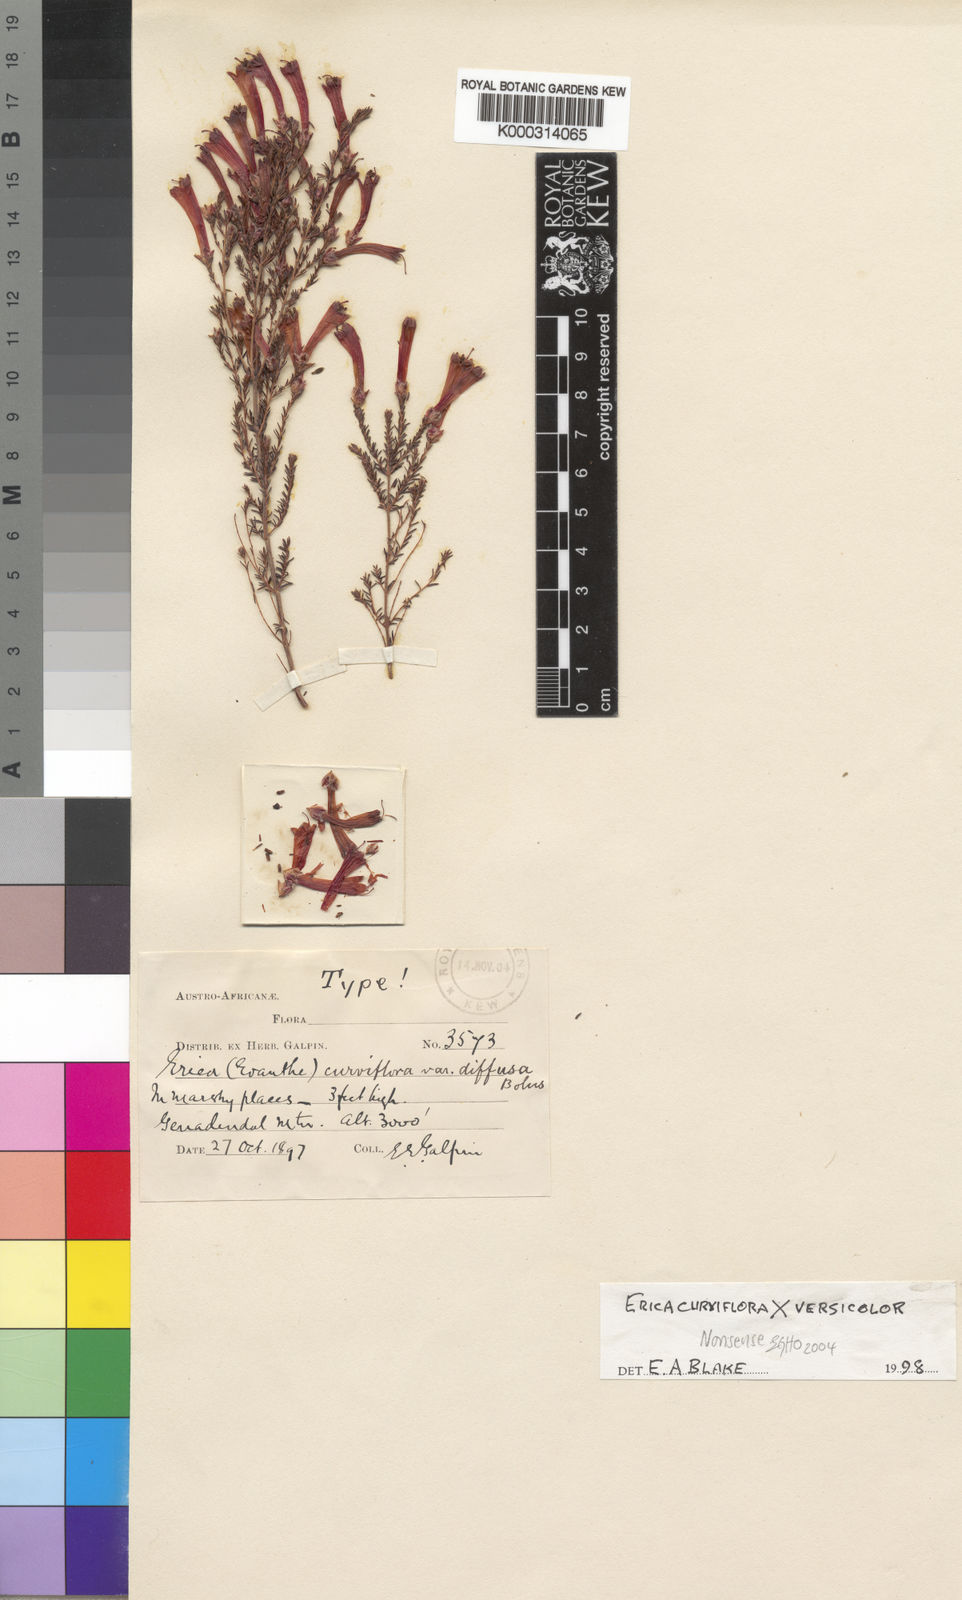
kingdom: Plantae
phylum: Tracheophyta
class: Magnoliopsida
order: Ericales
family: Ericaceae
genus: Erica
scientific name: Erica
